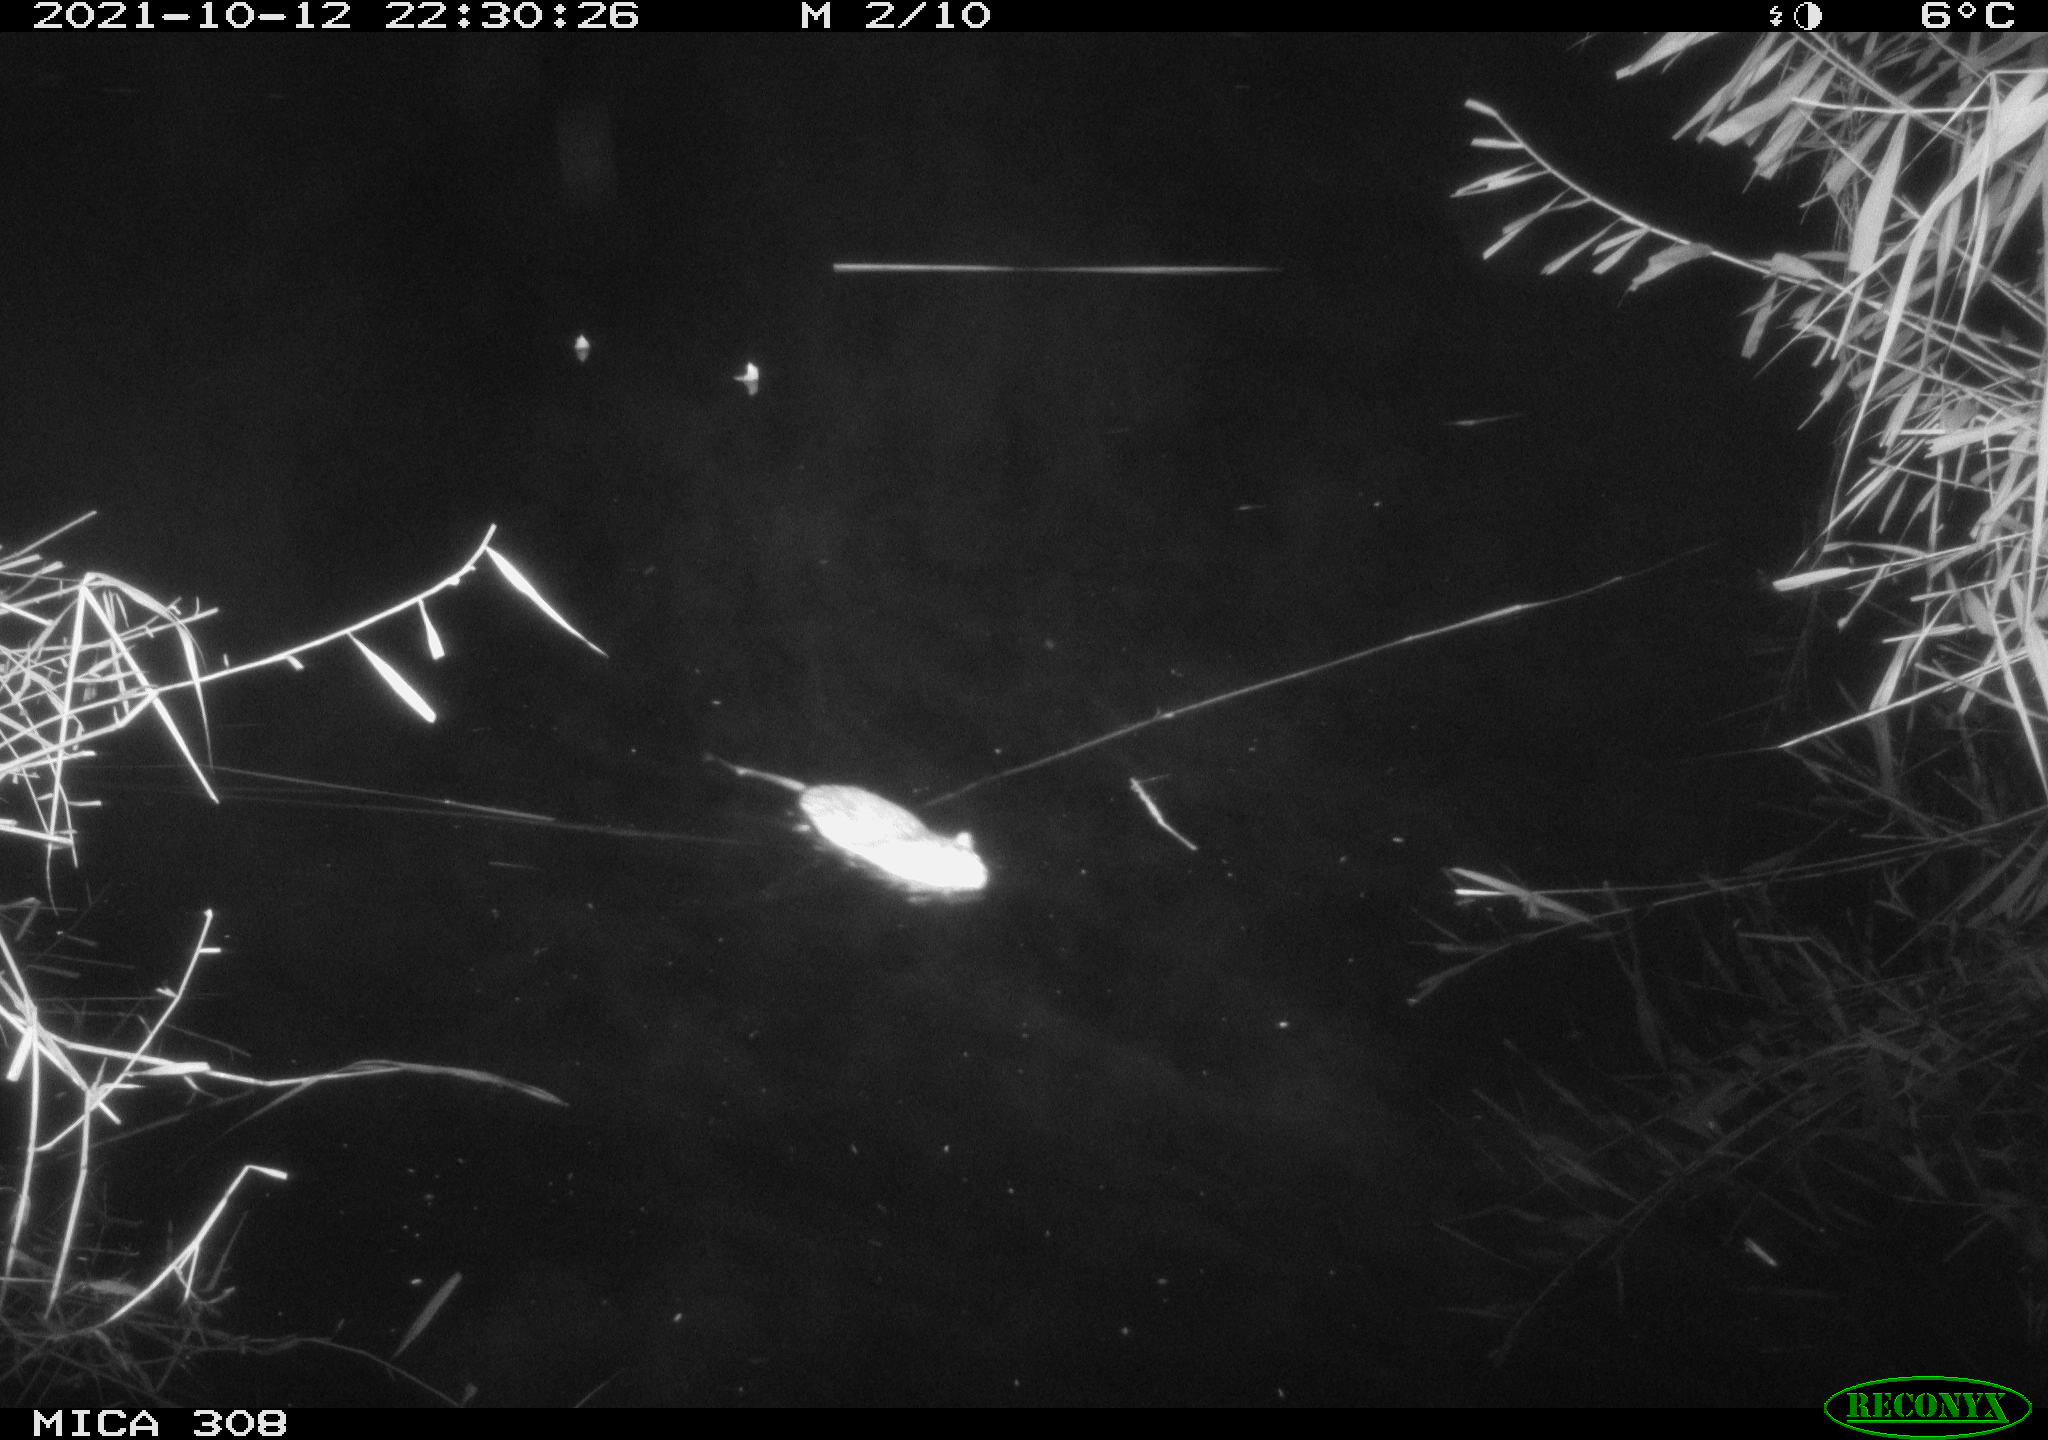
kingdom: Animalia
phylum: Chordata
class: Mammalia
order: Rodentia
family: Cricetidae
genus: Ondatra
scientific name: Ondatra zibethicus
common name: Muskrat
